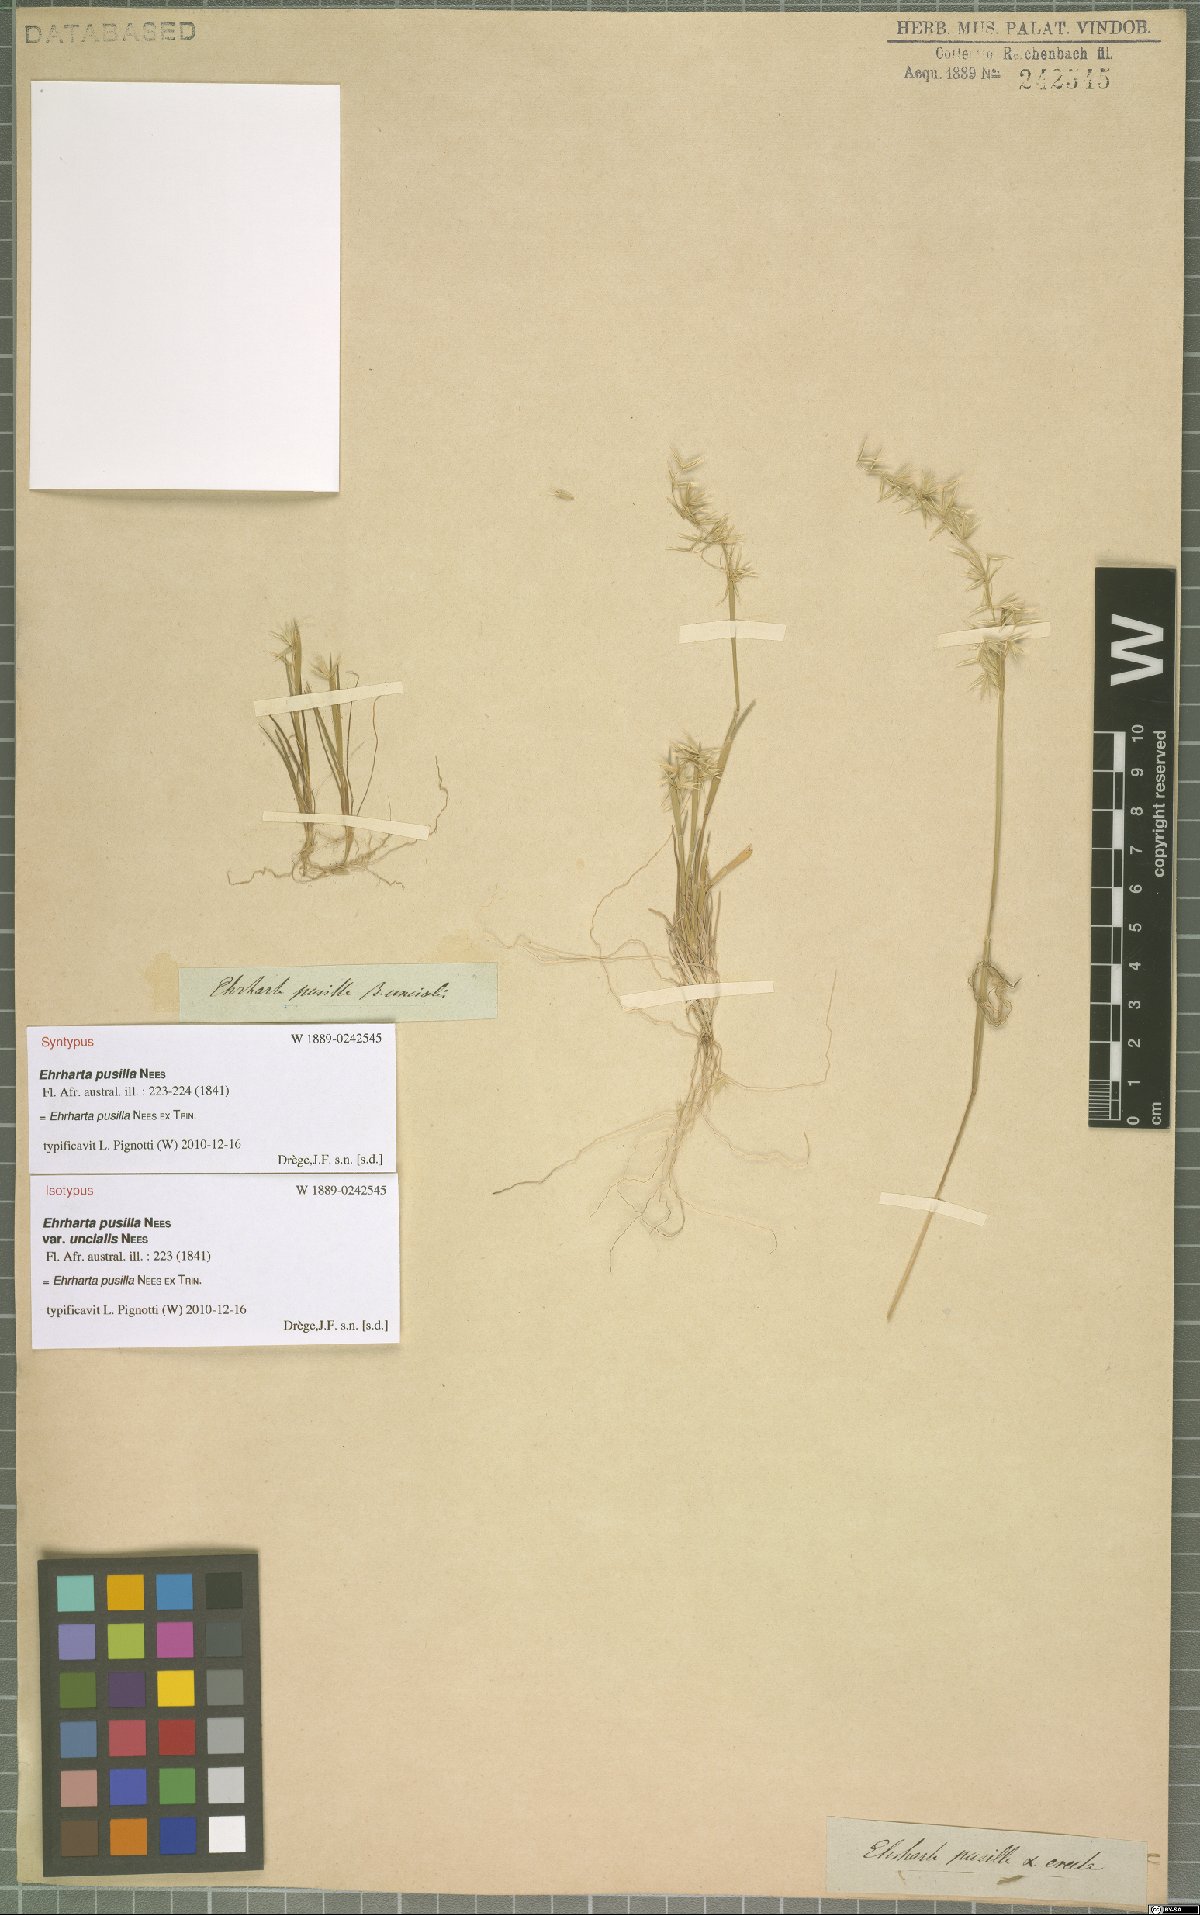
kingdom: Plantae
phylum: Tracheophyta
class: Liliopsida
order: Poales
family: Poaceae
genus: Ehrharta
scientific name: Ehrharta pusilla
